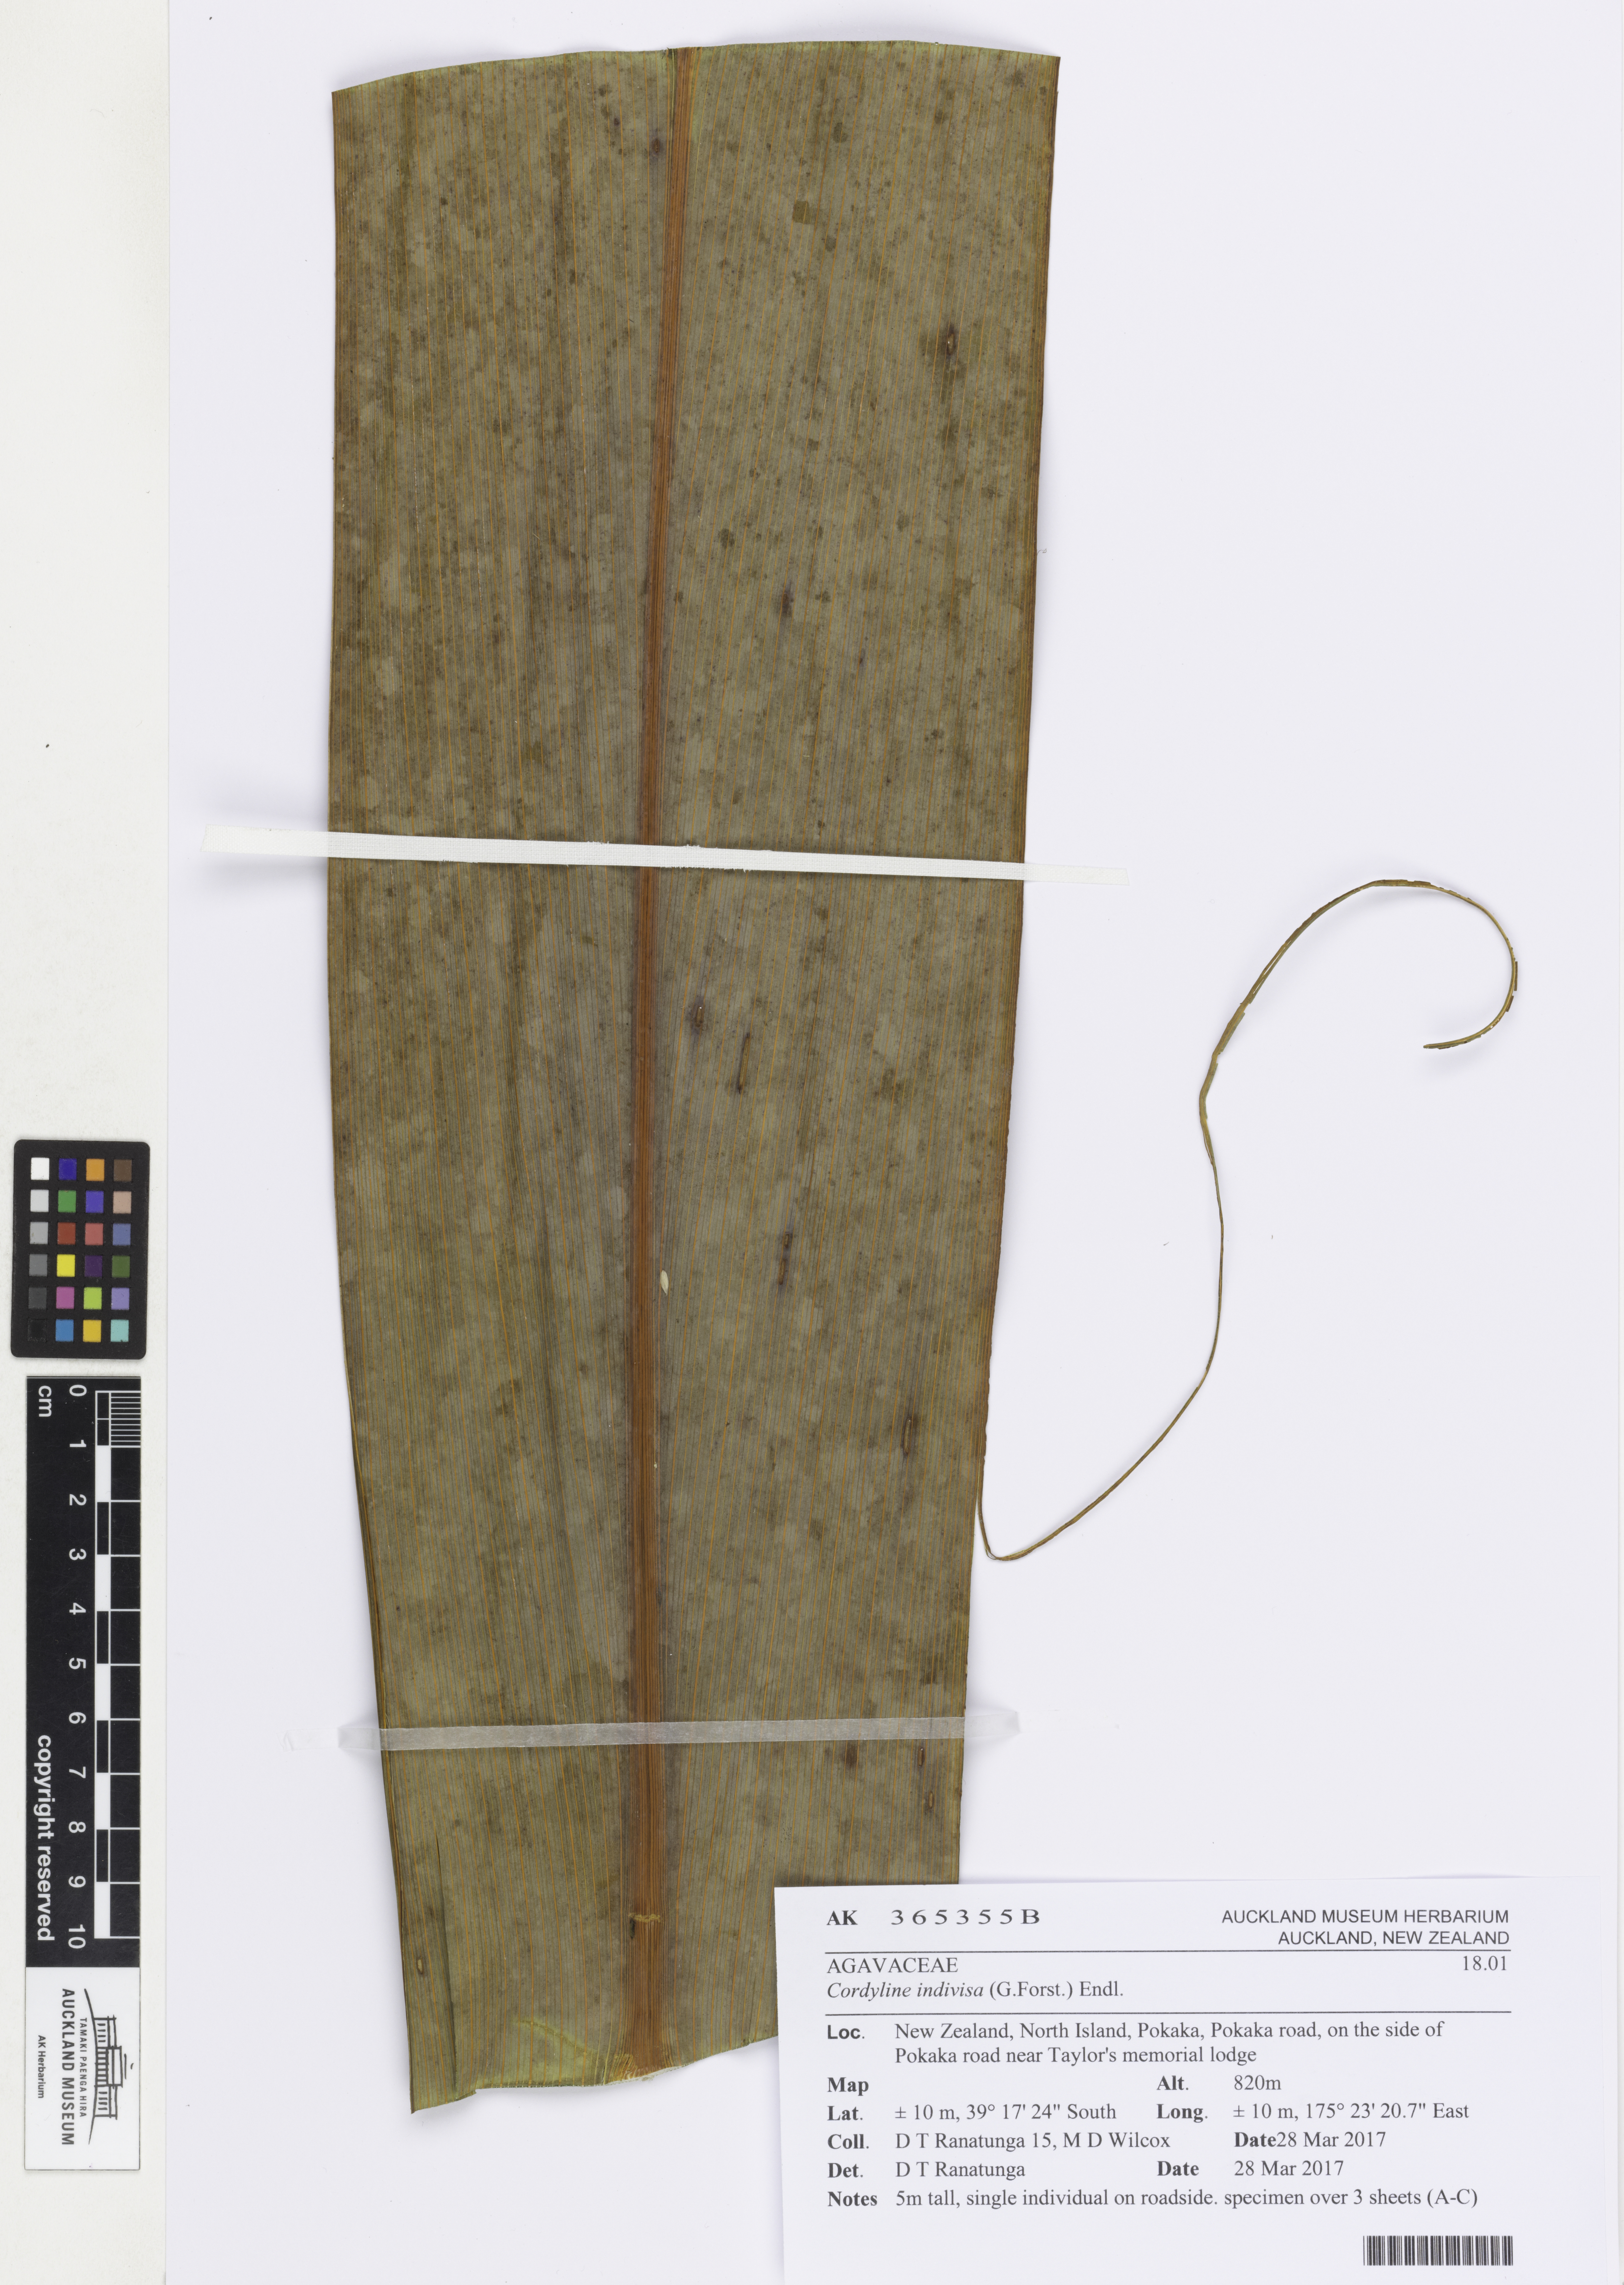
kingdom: Plantae
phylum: Tracheophyta
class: Liliopsida
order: Asparagales
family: Asparagaceae
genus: Cordyline
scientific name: Cordyline indivisa
